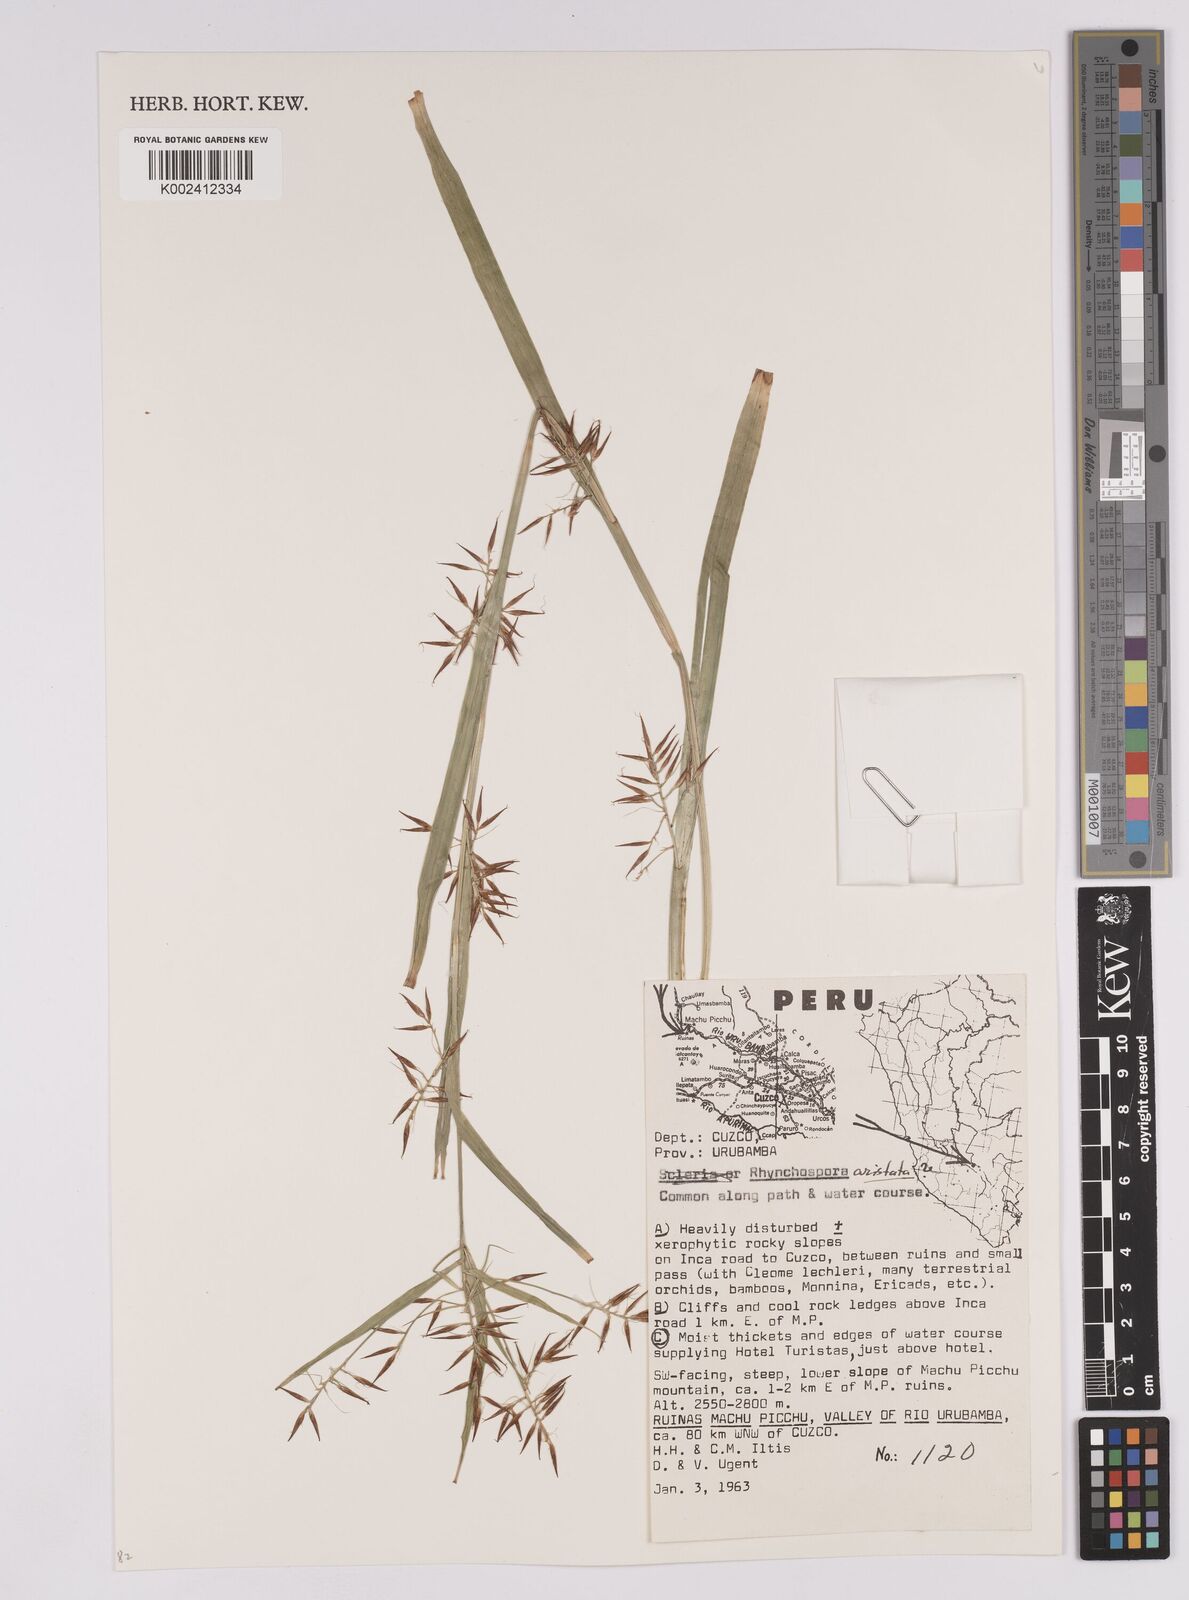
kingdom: Plantae
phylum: Tracheophyta
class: Liliopsida
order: Poales
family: Cyperaceae
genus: Rhynchospora
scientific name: Rhynchospora aristata
